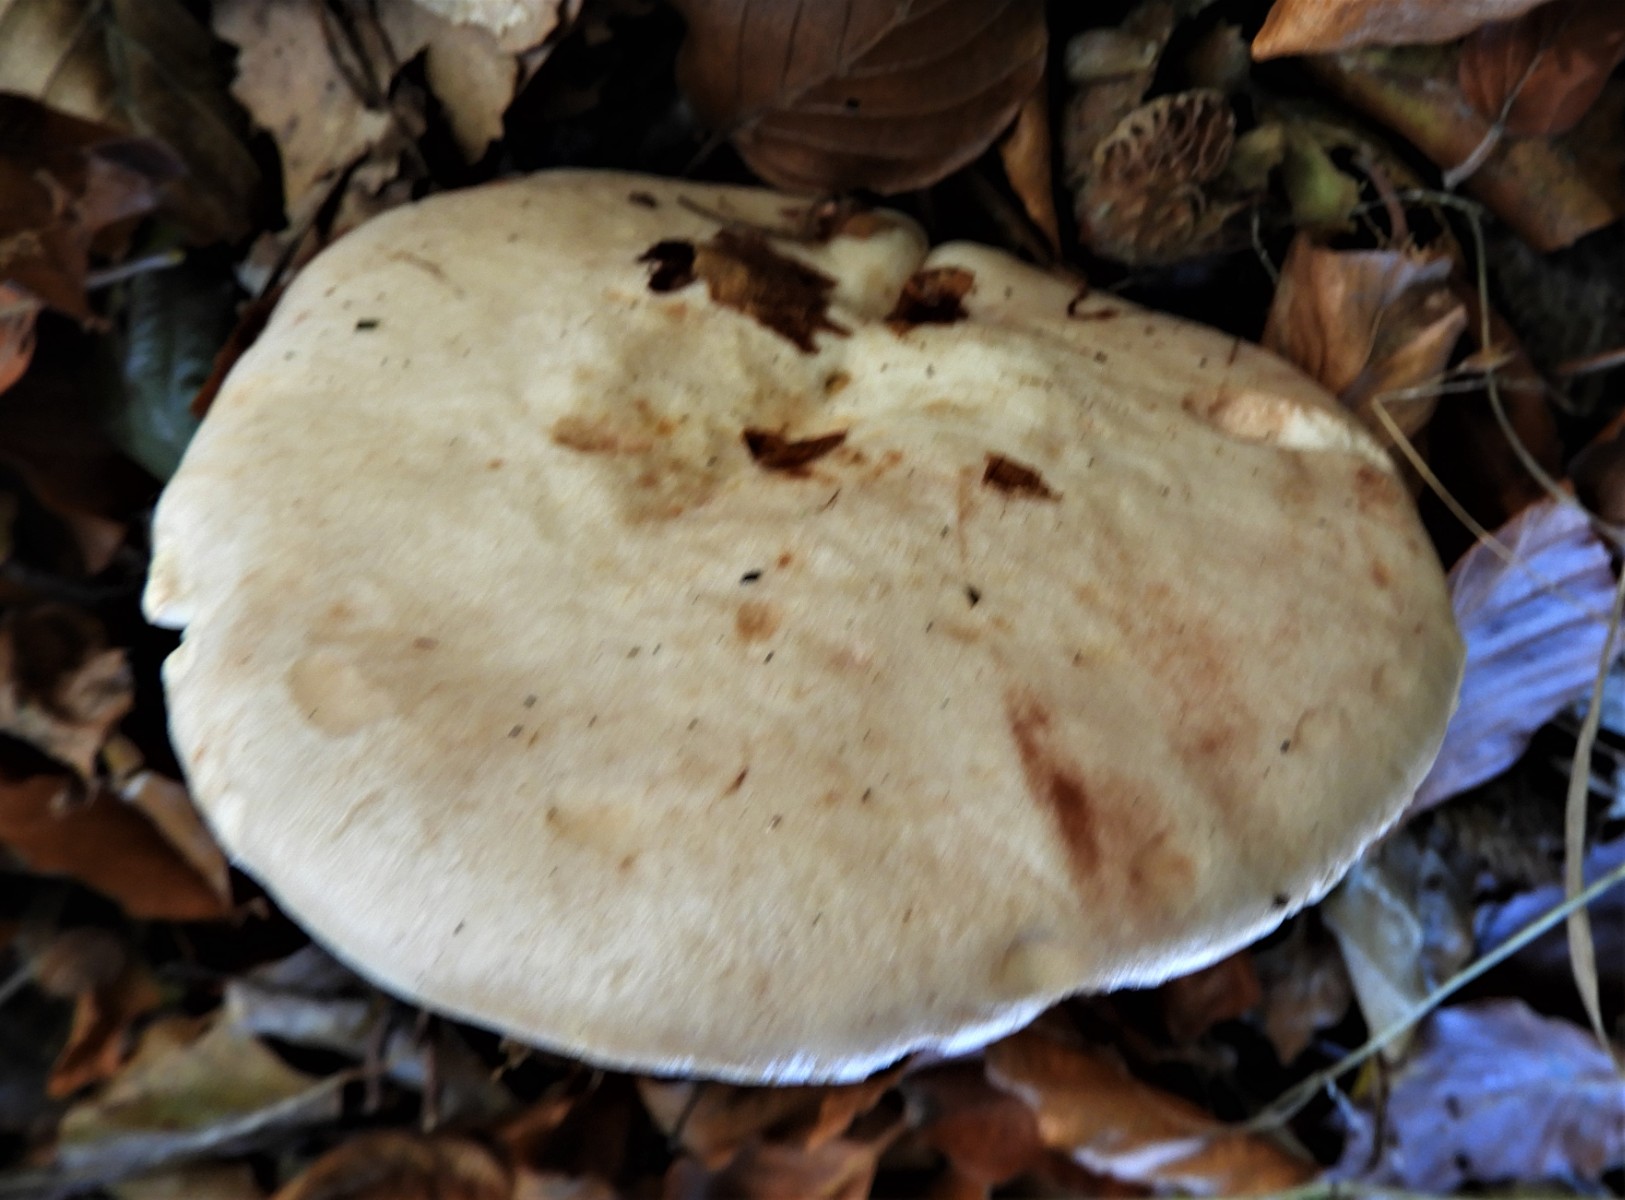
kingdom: Fungi
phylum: Basidiomycota
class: Agaricomycetes
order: Russulales
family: Russulaceae
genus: Lactarius
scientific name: Lactarius pallidus
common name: bleg mælkehat
